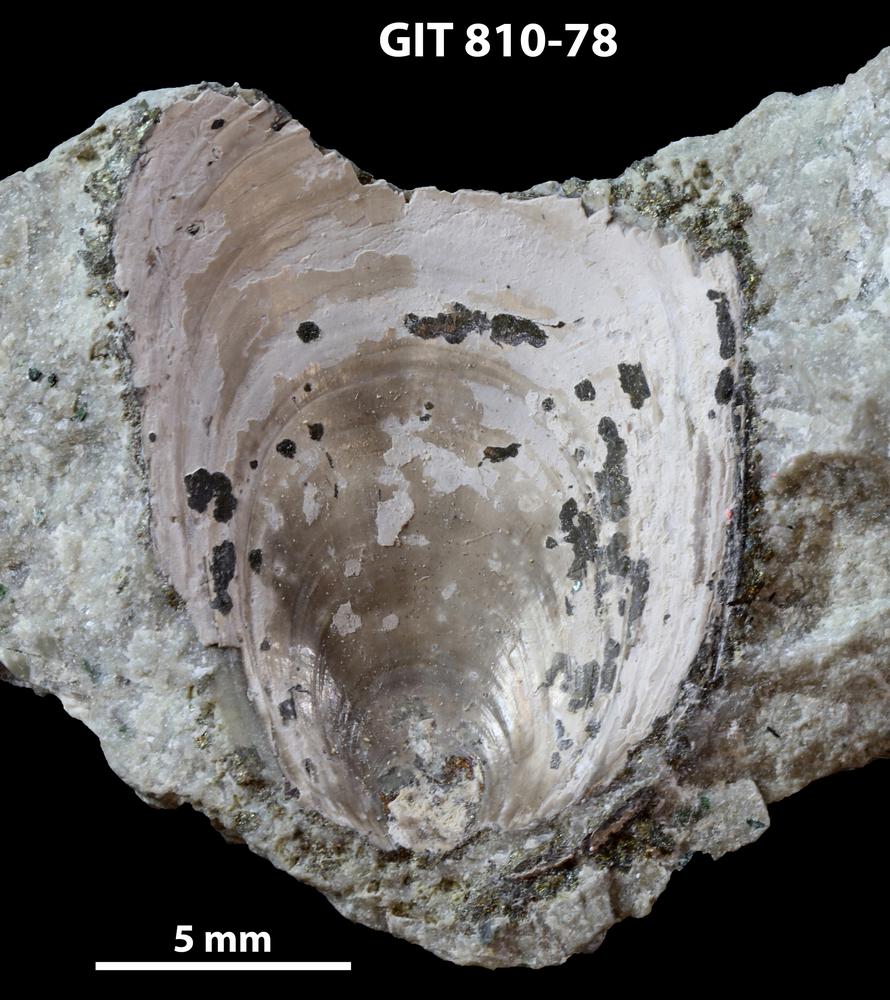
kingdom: Animalia
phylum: Brachiopoda
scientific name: Brachiopoda
